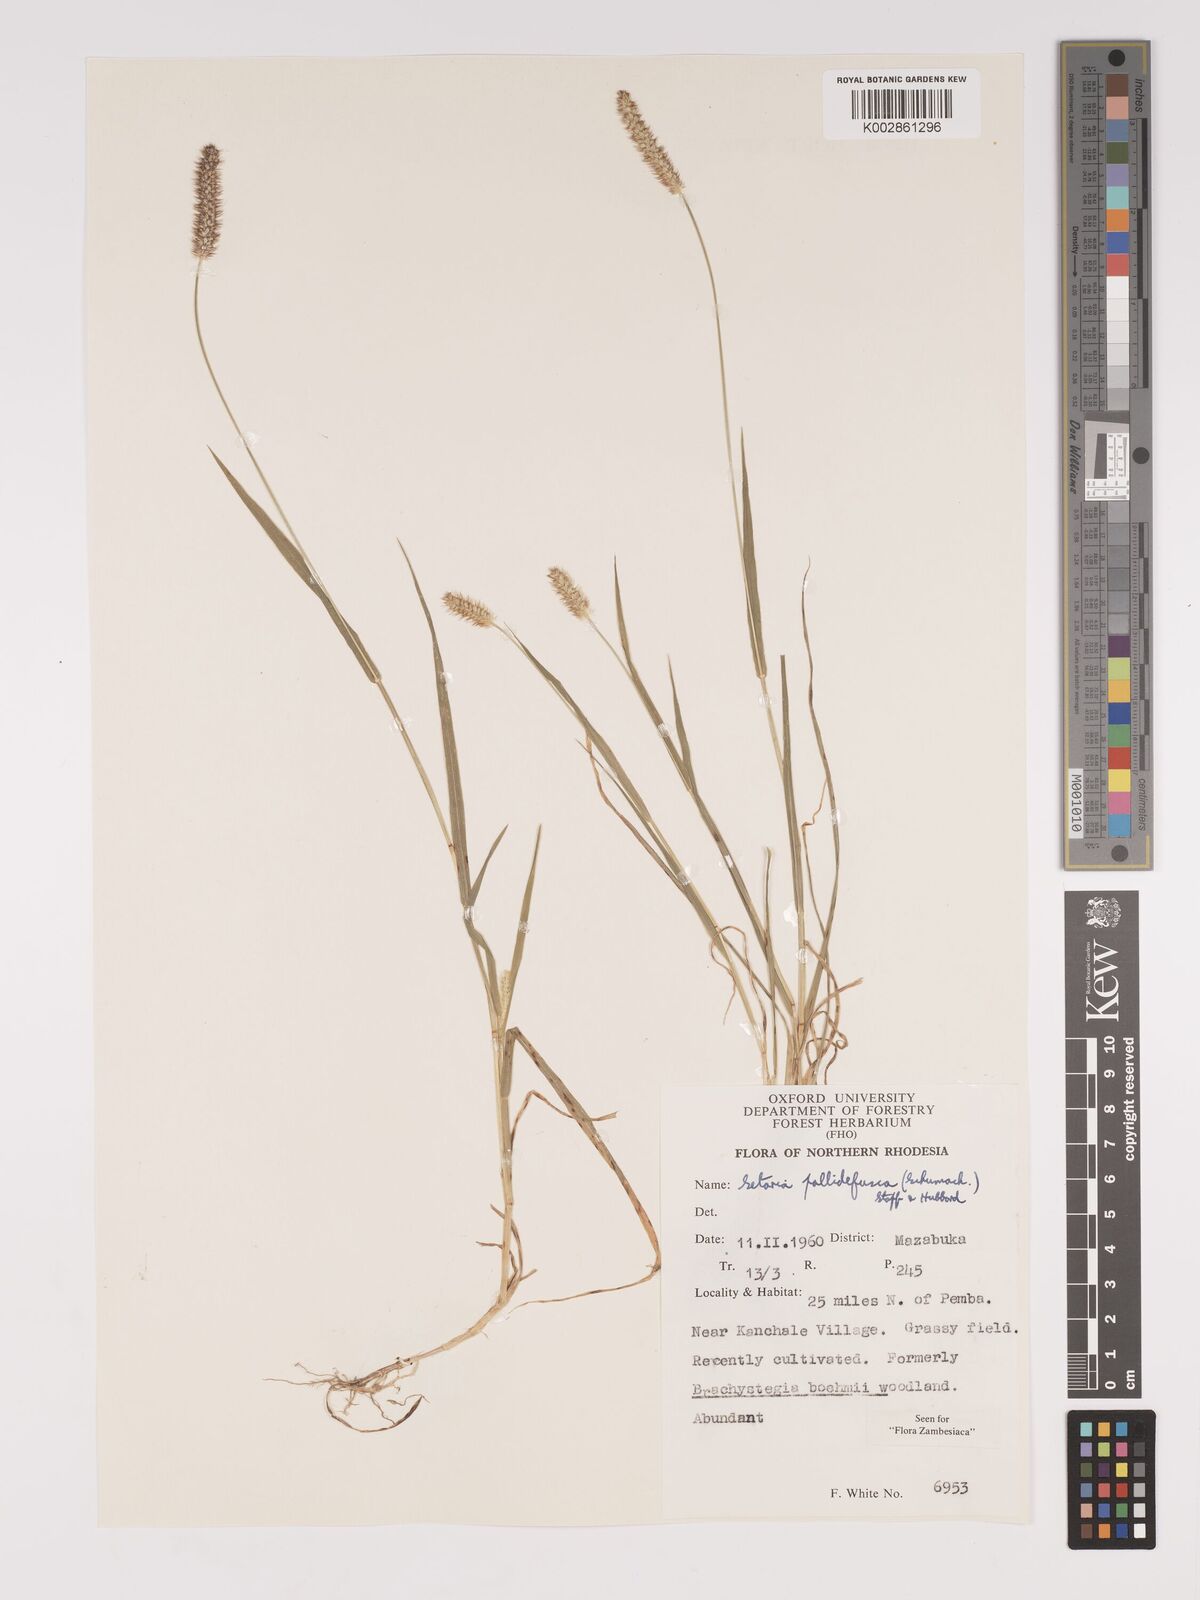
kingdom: Plantae
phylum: Tracheophyta
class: Liliopsida
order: Poales
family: Poaceae
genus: Setaria
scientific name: Setaria pumila
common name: Yellow bristle-grass
